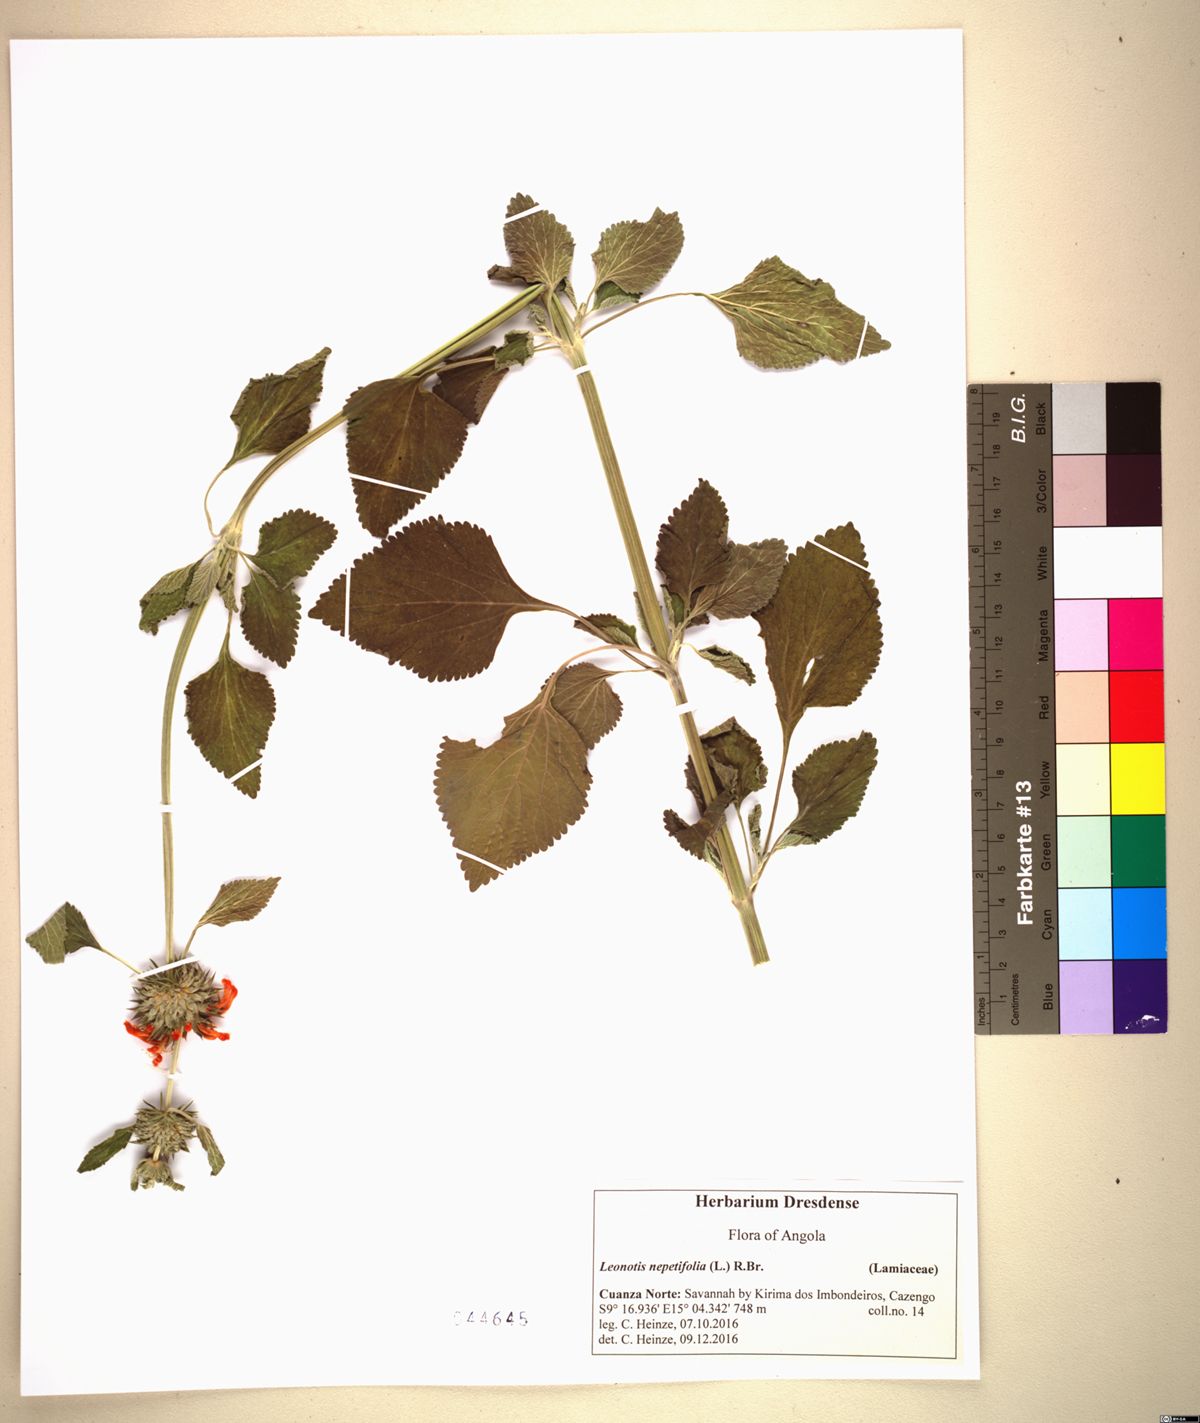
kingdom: Plantae
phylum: Tracheophyta
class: Magnoliopsida
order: Lamiales
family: Lamiaceae
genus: Leonotis
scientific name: Leonotis nepetifolia
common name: Christmas candlestick
